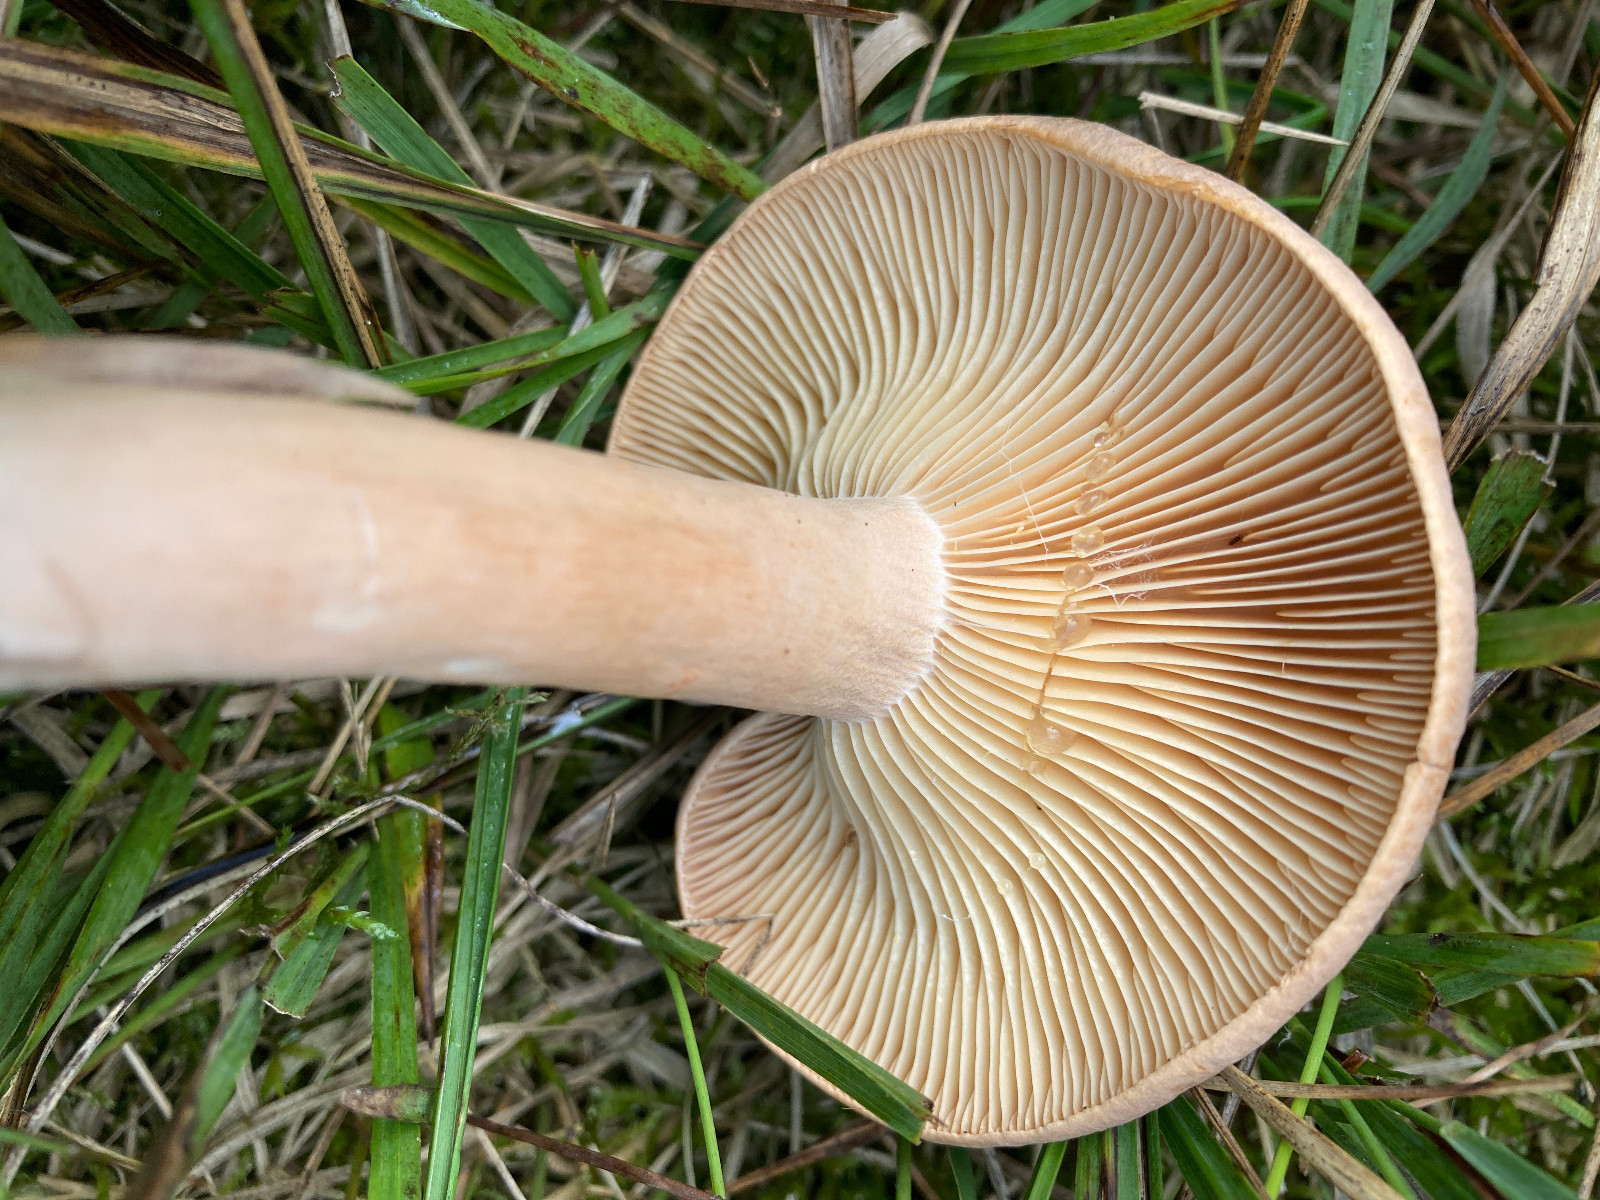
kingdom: Fungi
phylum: Basidiomycota
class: Agaricomycetes
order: Russulales
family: Russulaceae
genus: Lactarius
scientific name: Lactarius helvus
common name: mose-mælkehat
